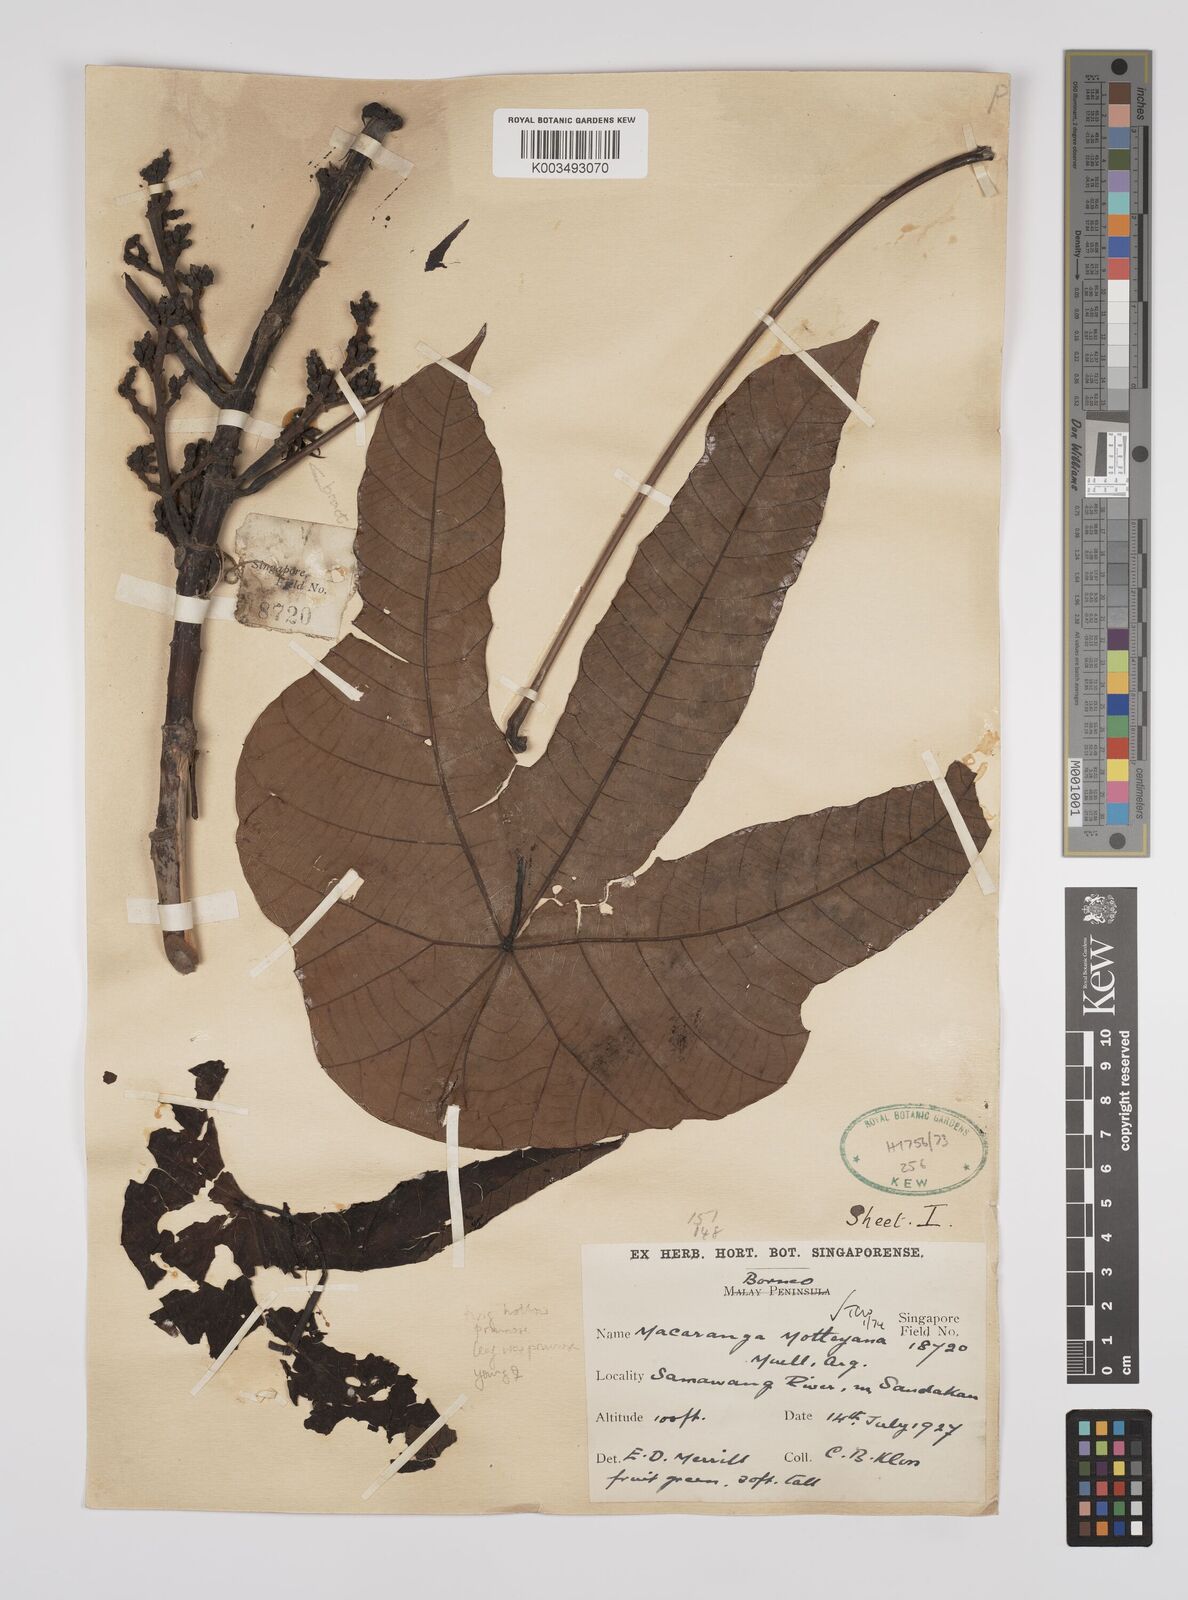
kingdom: Plantae
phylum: Tracheophyta
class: Magnoliopsida
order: Malpighiales
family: Euphorbiaceae
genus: Macaranga
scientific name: Macaranga motleyana
